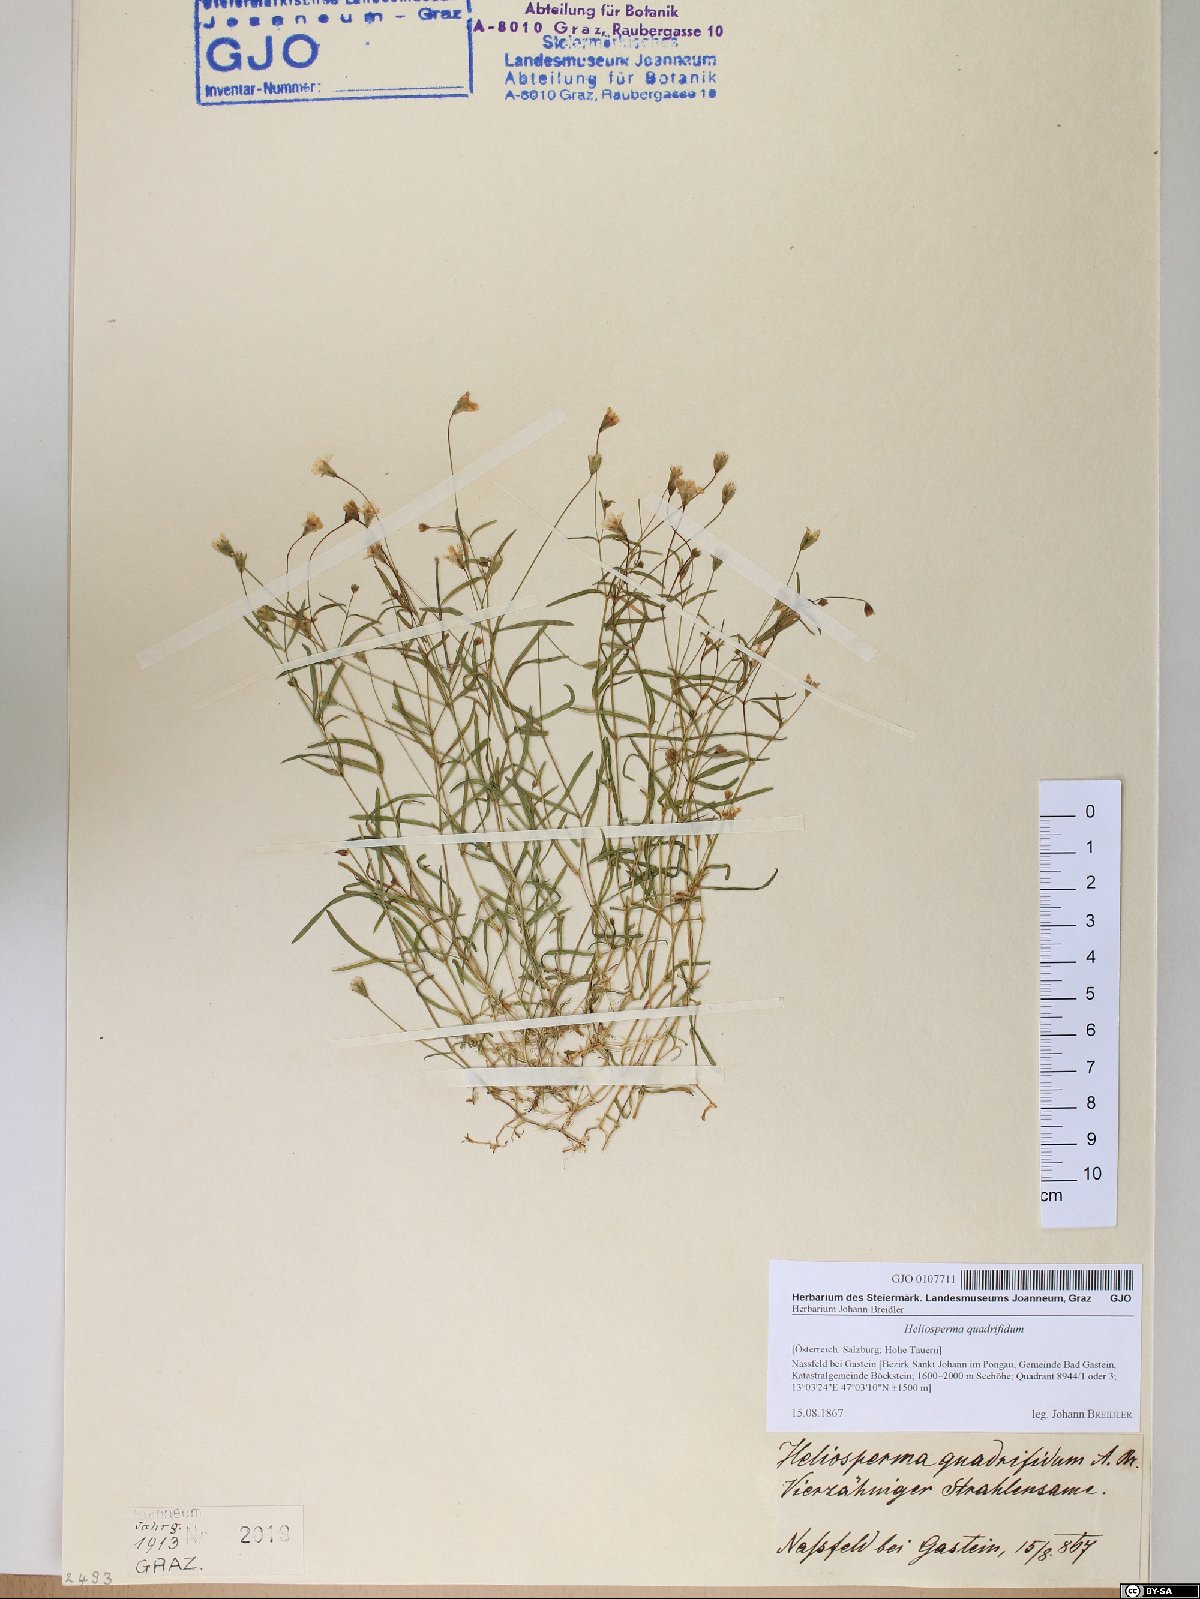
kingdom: Plantae
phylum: Tracheophyta
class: Magnoliopsida
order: Caryophyllales
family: Caryophyllaceae
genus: Heliosperma
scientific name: Heliosperma alpestre
